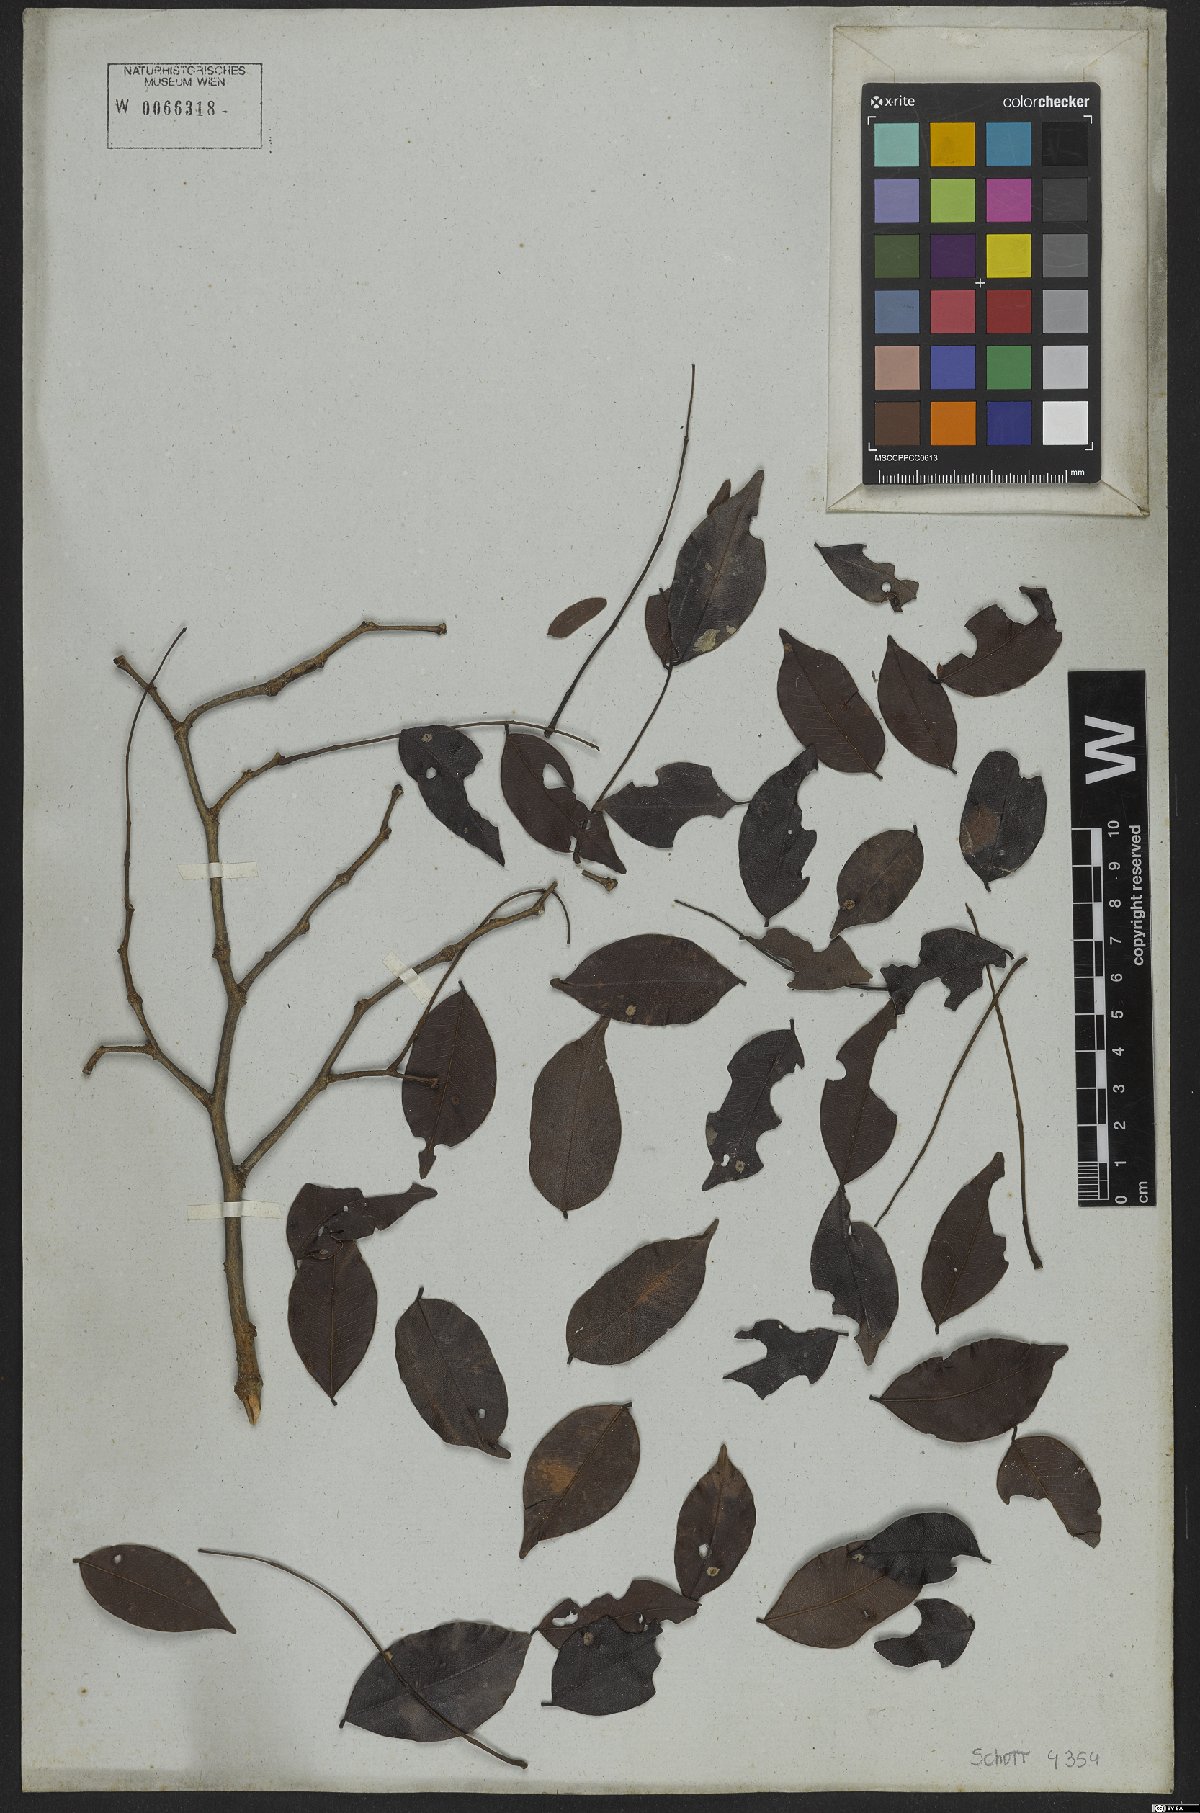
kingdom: Plantae
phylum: Tracheophyta
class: Magnoliopsida
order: Fabales
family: Fabaceae
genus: Copaifera
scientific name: Copaifera
